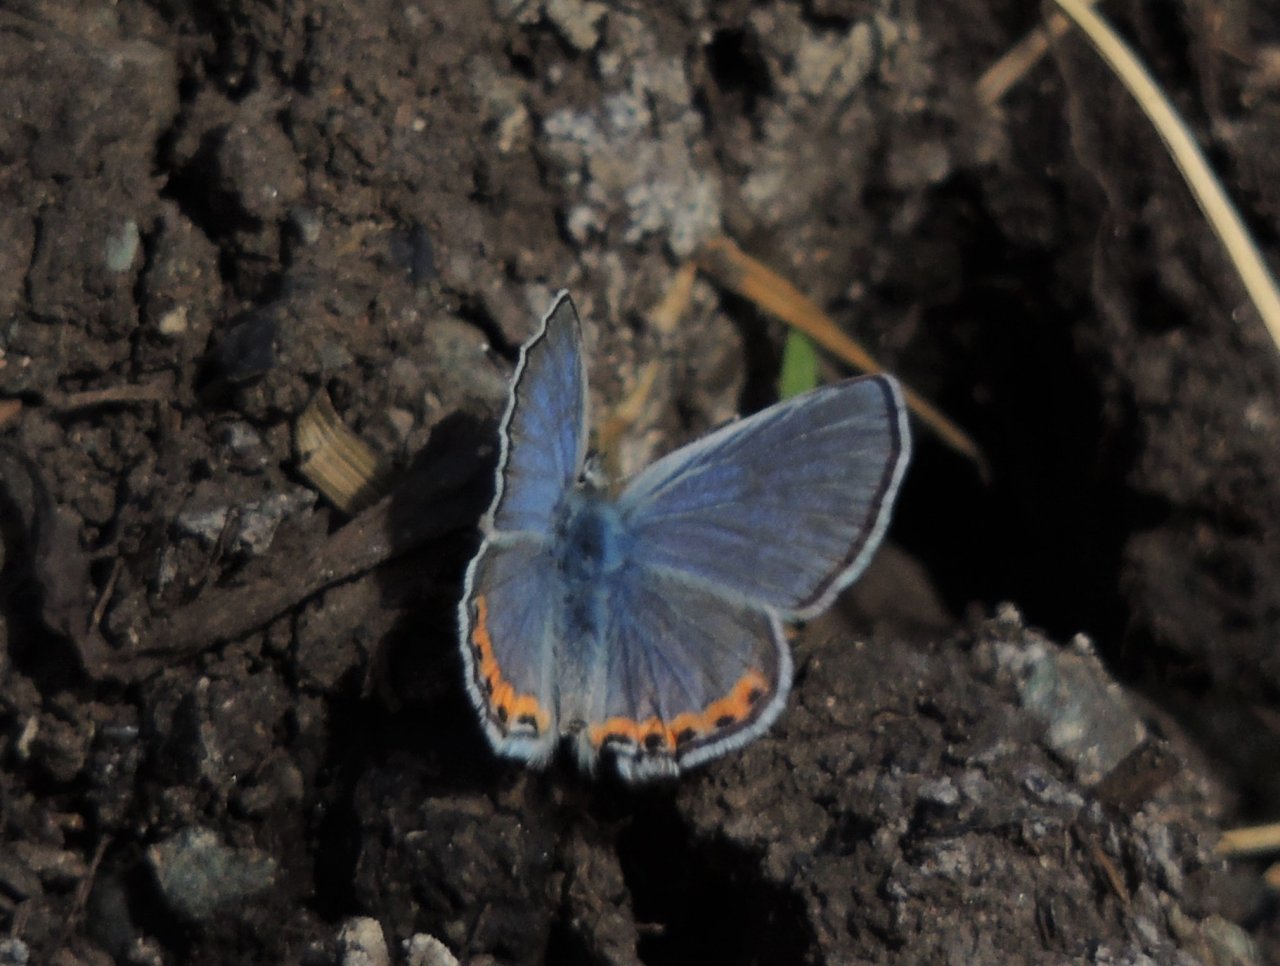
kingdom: Animalia
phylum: Arthropoda
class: Insecta
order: Lepidoptera
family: Lycaenidae
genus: Plebejus
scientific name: Plebejus lupini
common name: Lupine Blue
